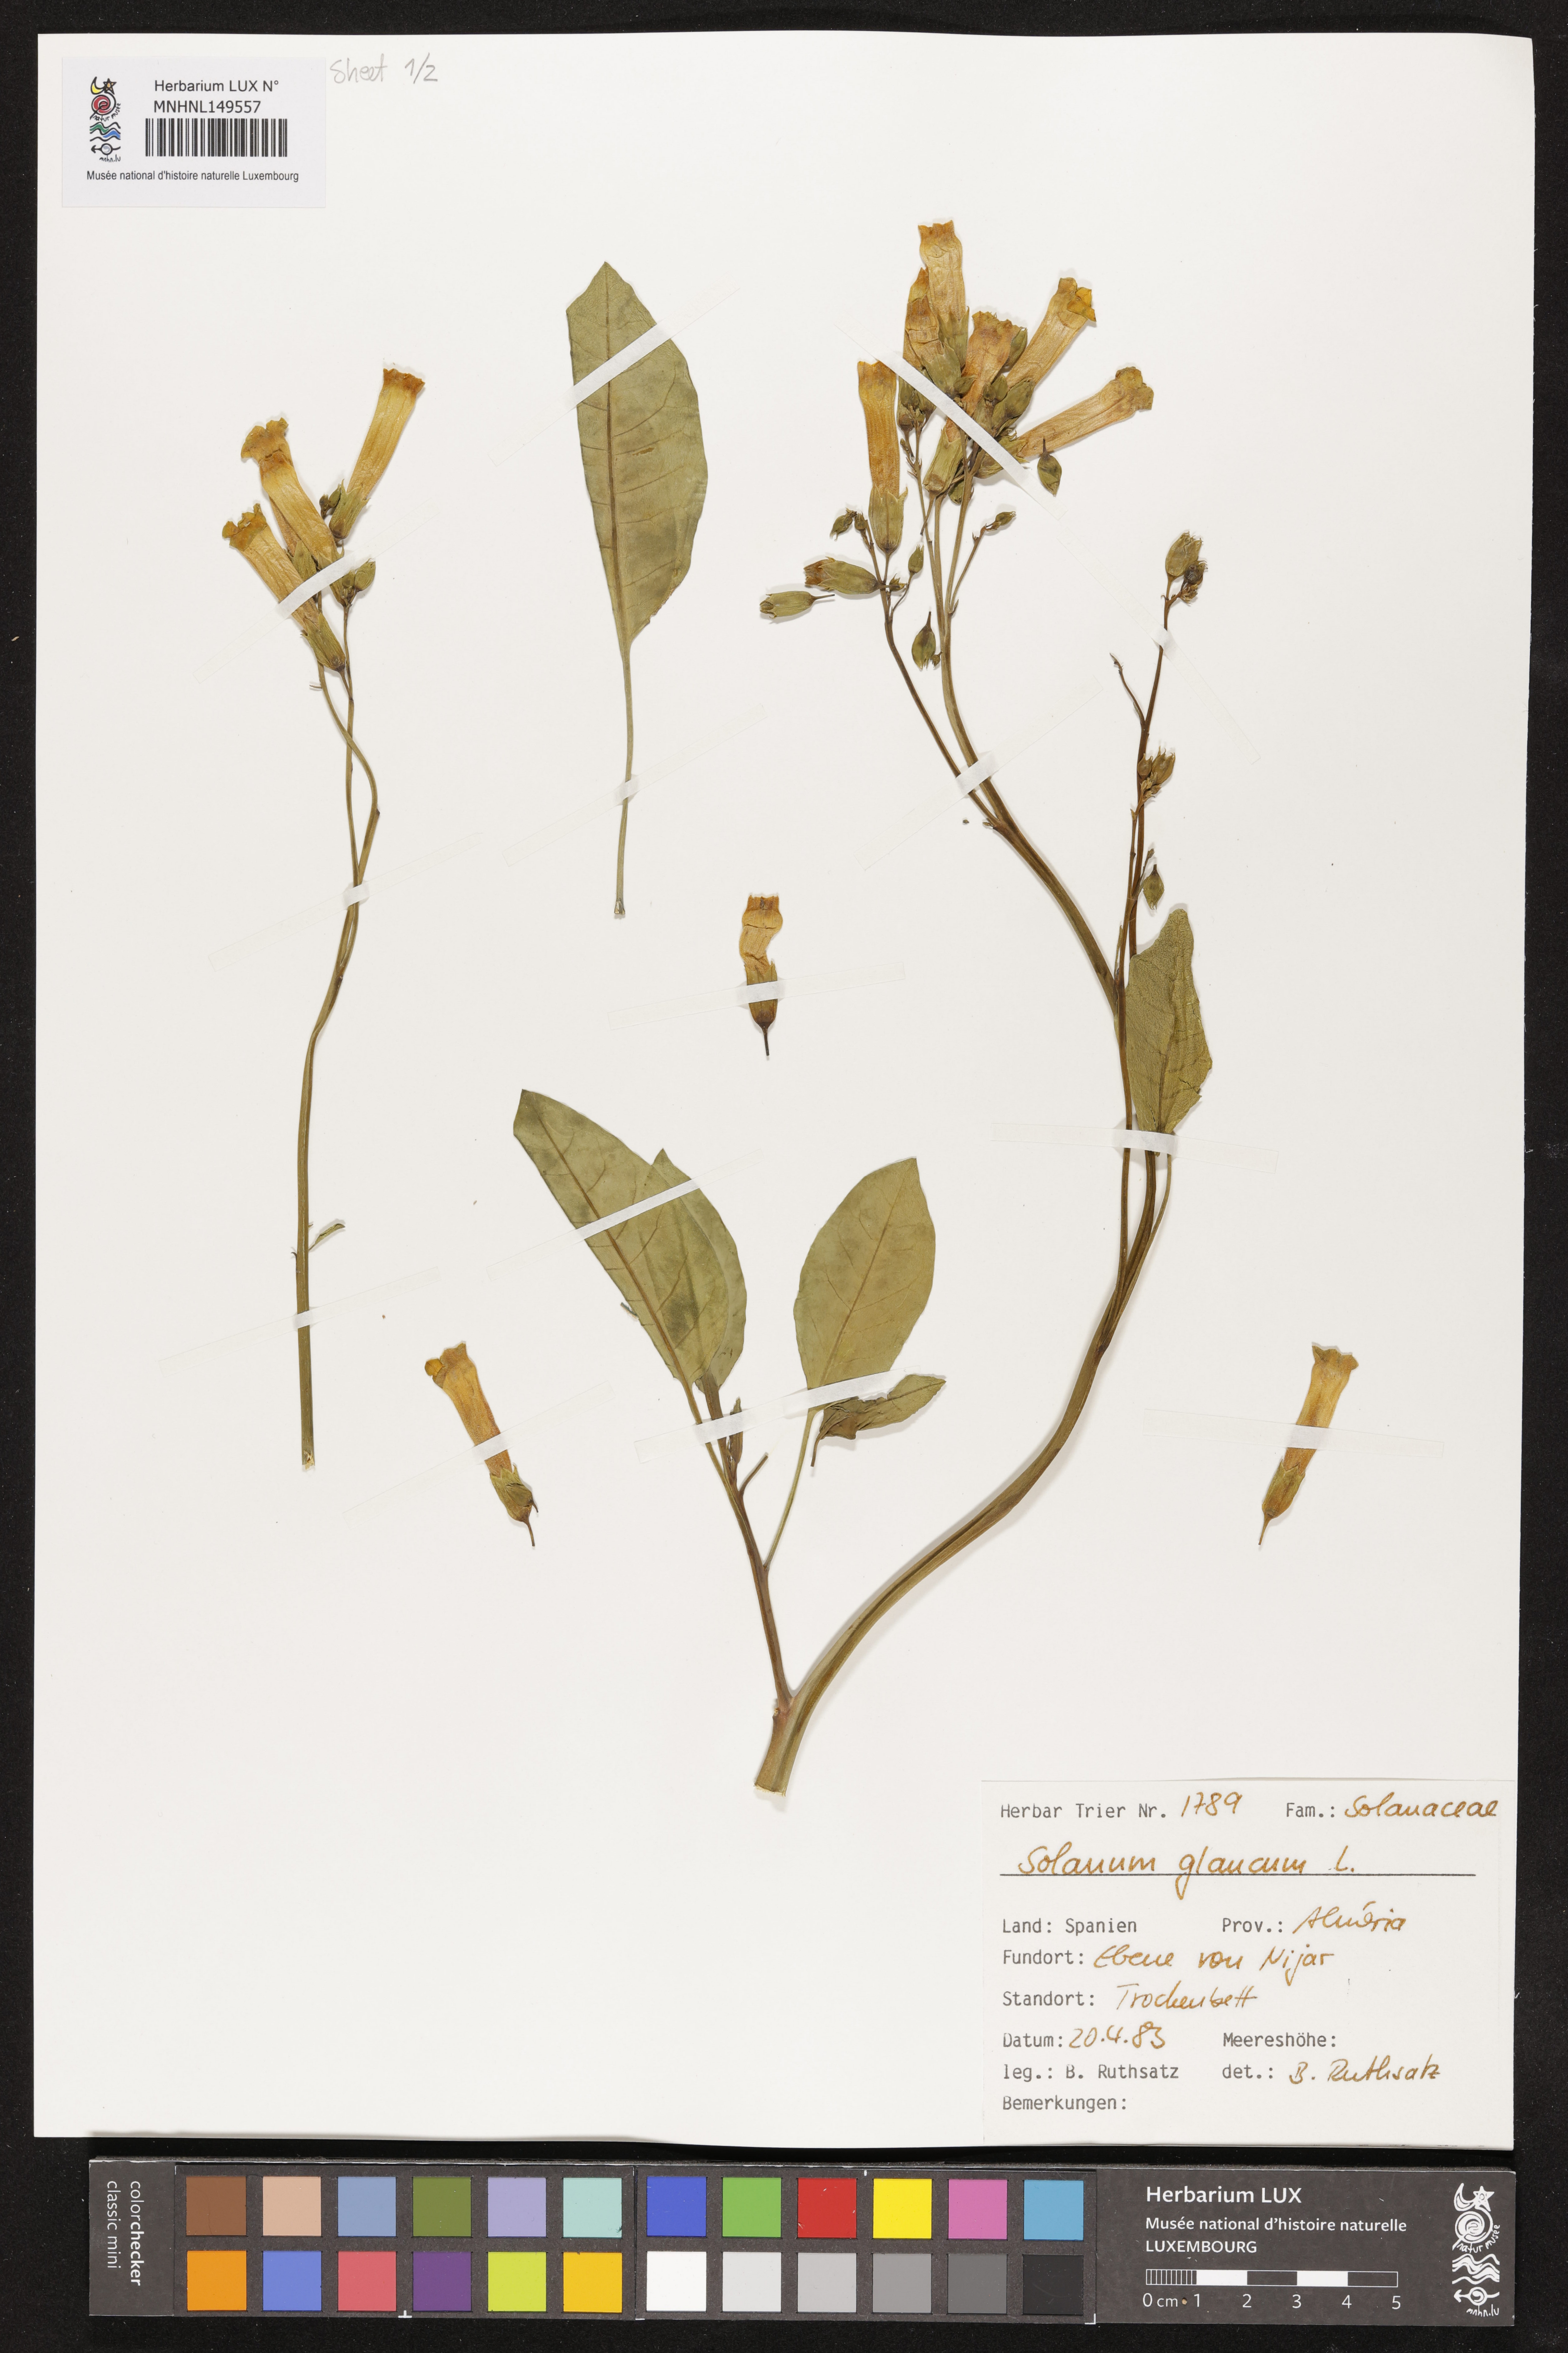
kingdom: Plantae
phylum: Tracheophyta
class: Magnoliopsida
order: Solanales
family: Solanaceae
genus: Solanum
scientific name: Solanum glaucophyllum
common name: Waxyleaf nightshade
